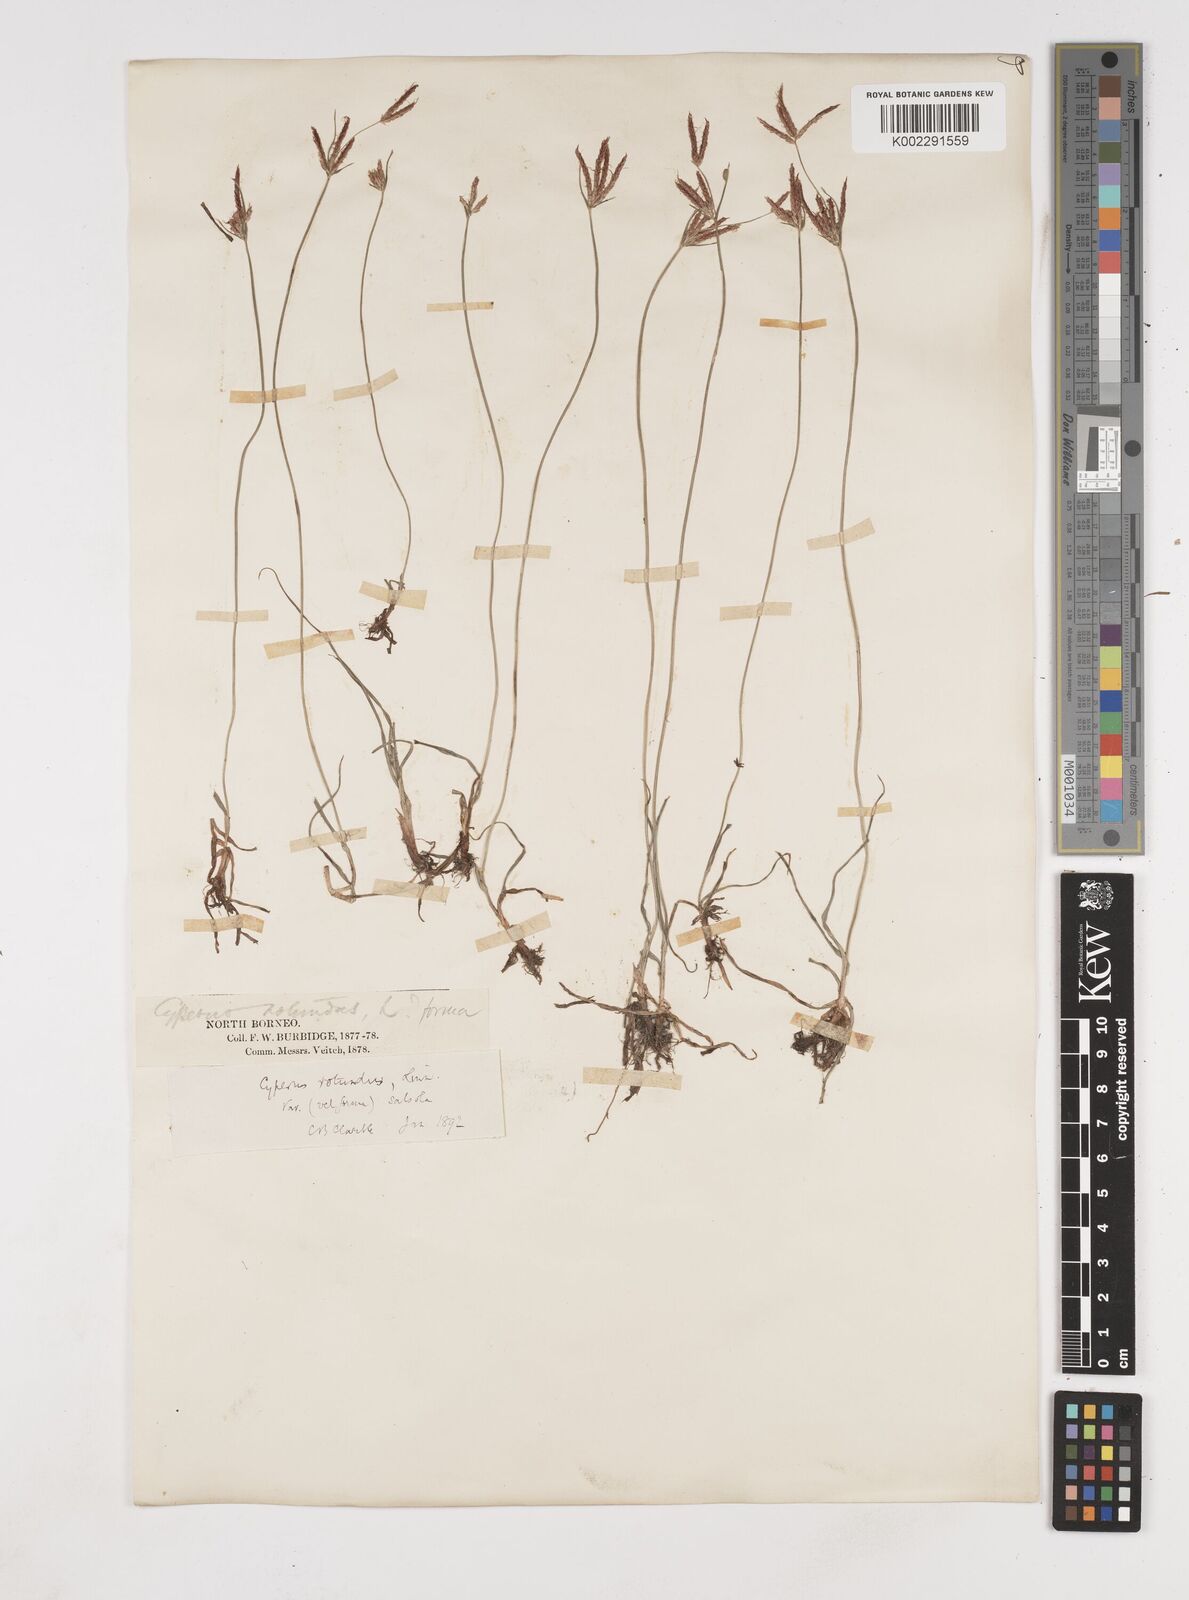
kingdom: Plantae
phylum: Tracheophyta
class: Liliopsida
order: Poales
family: Cyperaceae
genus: Cyperus
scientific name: Cyperus rotundus
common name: Nutgrass
